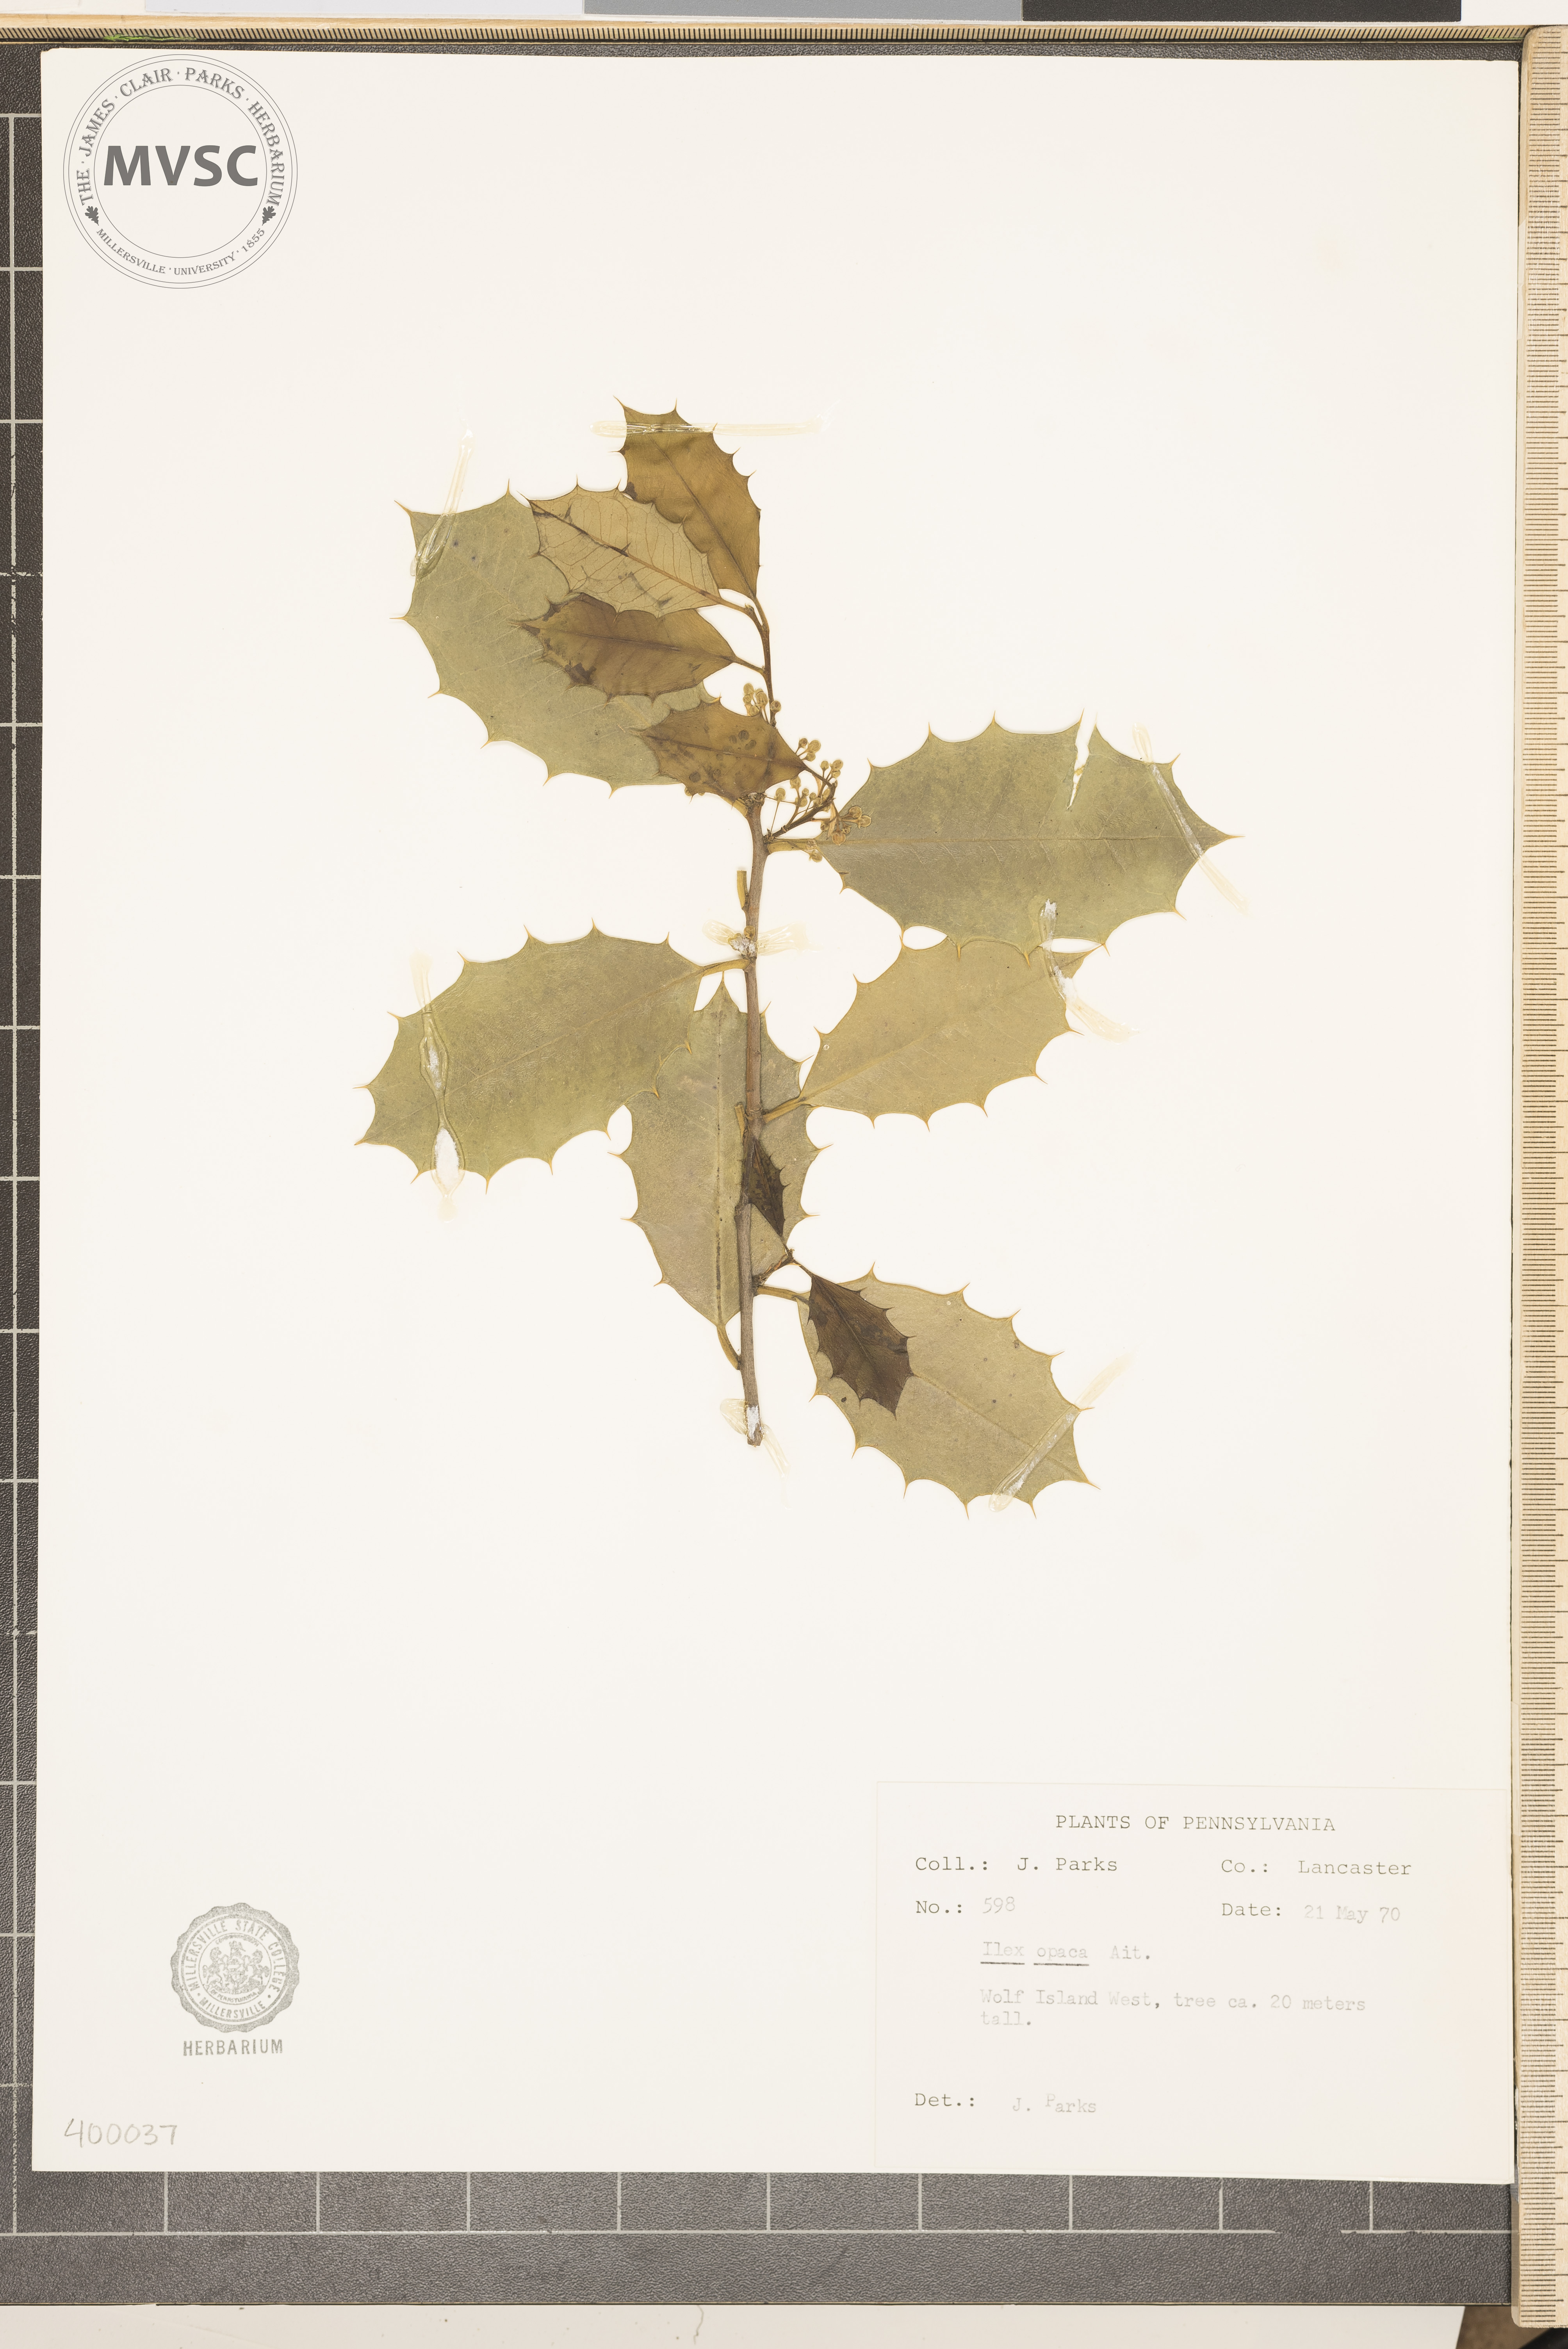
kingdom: Plantae
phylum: Tracheophyta
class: Magnoliopsida
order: Aquifoliales
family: Aquifoliaceae
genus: Ilex
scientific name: Ilex opaca
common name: American holly
